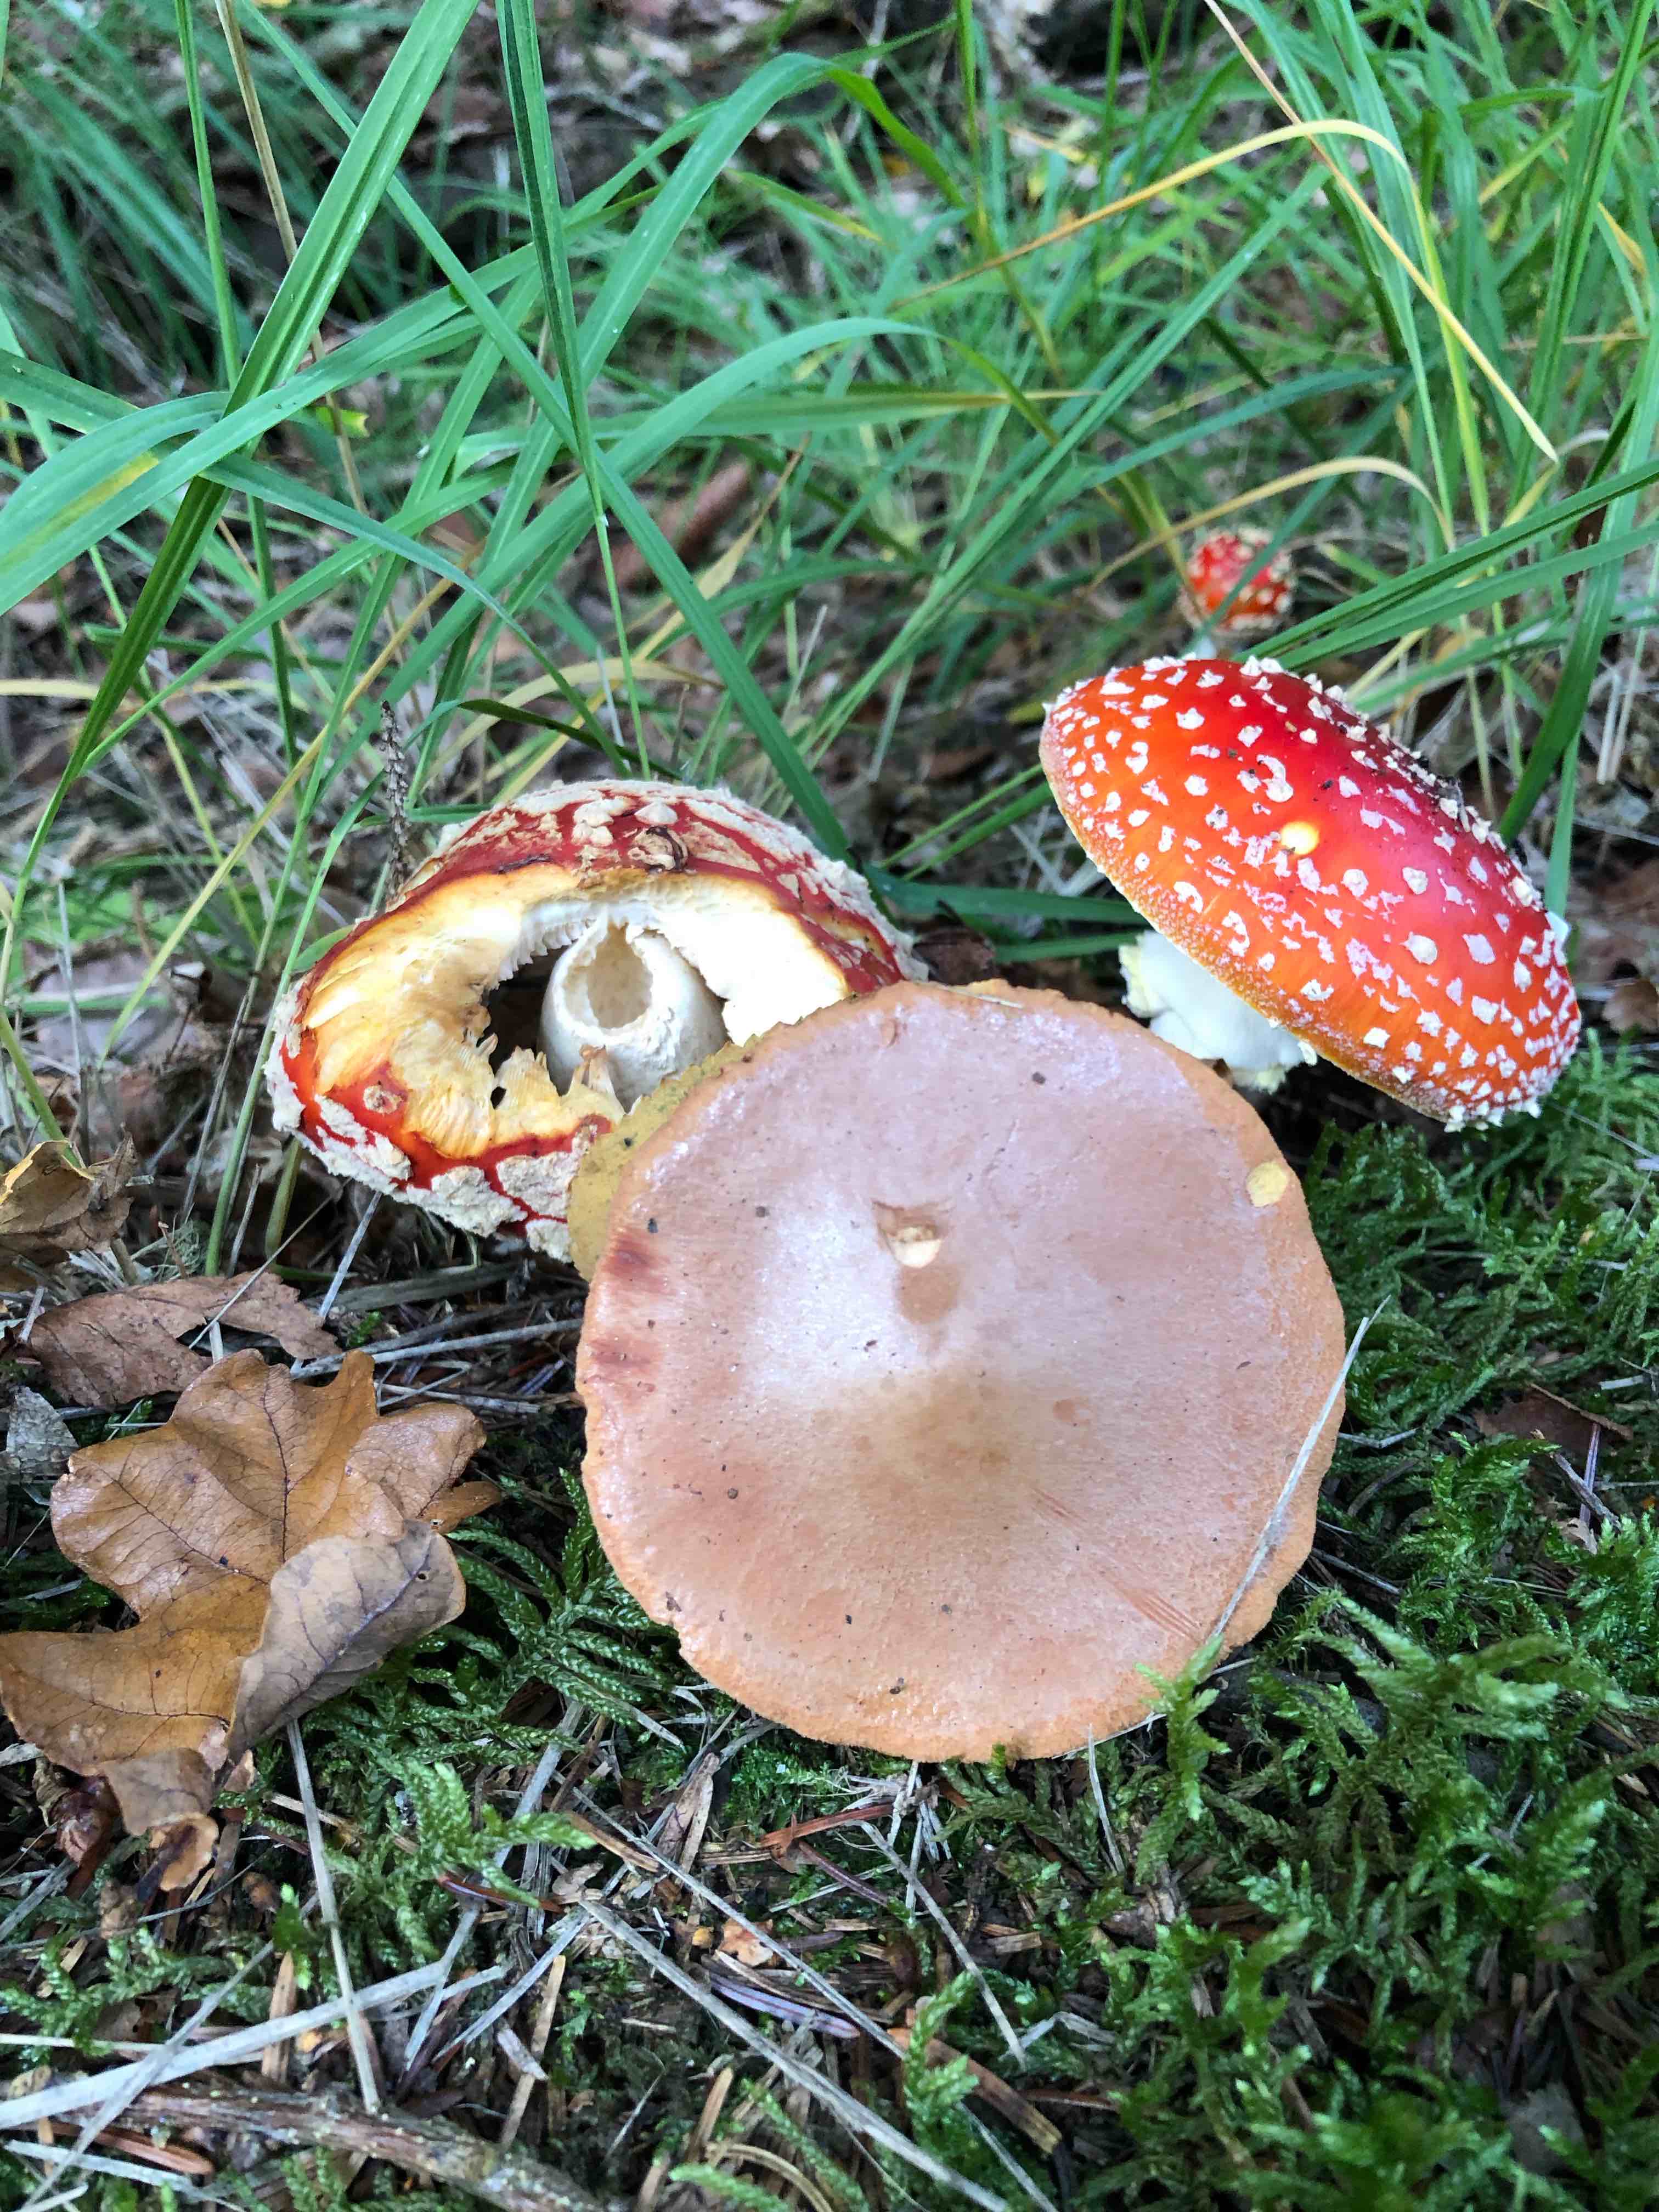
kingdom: Fungi
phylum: Basidiomycota
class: Agaricomycetes
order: Boletales
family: Boletaceae
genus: Chalciporus
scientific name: Chalciporus piperatus
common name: peberrørhat
